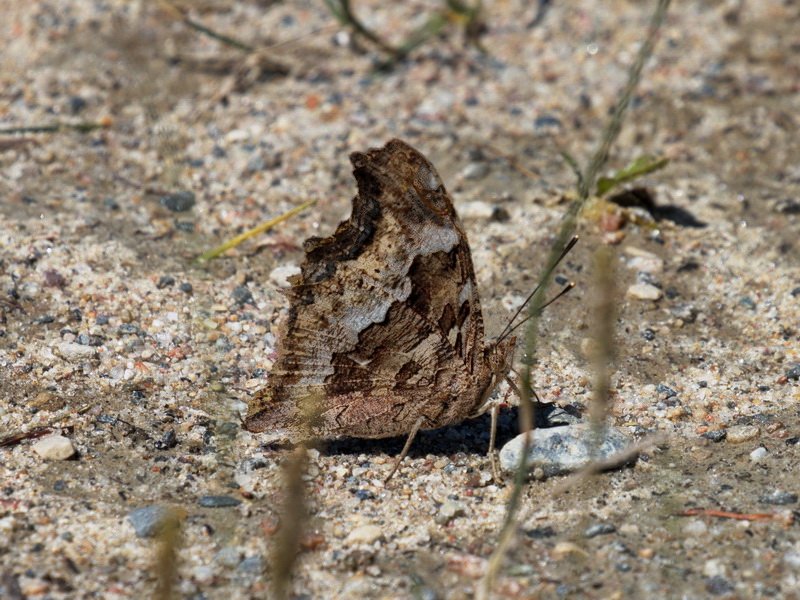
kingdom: Animalia
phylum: Arthropoda
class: Insecta
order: Lepidoptera
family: Nymphalidae
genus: Polygonia
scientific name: Polygonia vaualbum
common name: Compton Tortoiseshell
